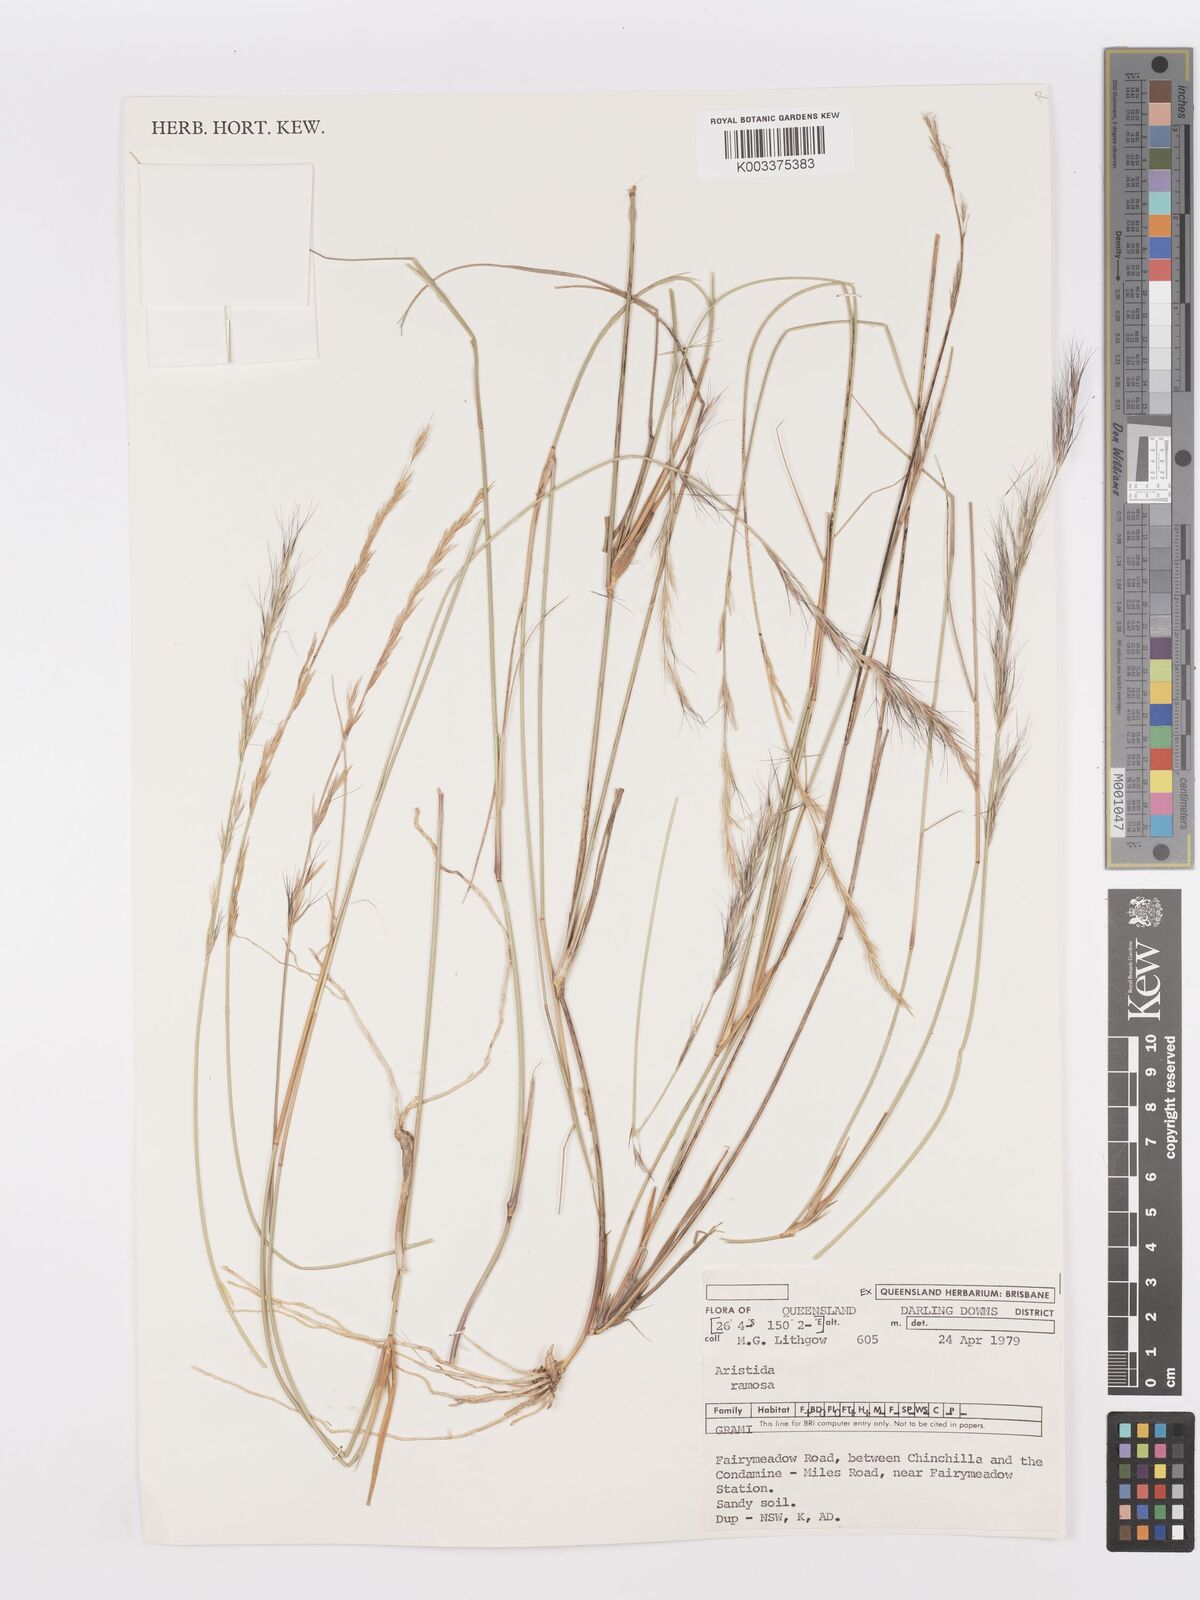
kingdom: Plantae
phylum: Tracheophyta
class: Liliopsida
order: Poales
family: Poaceae
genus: Aristida
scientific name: Aristida ramosa
